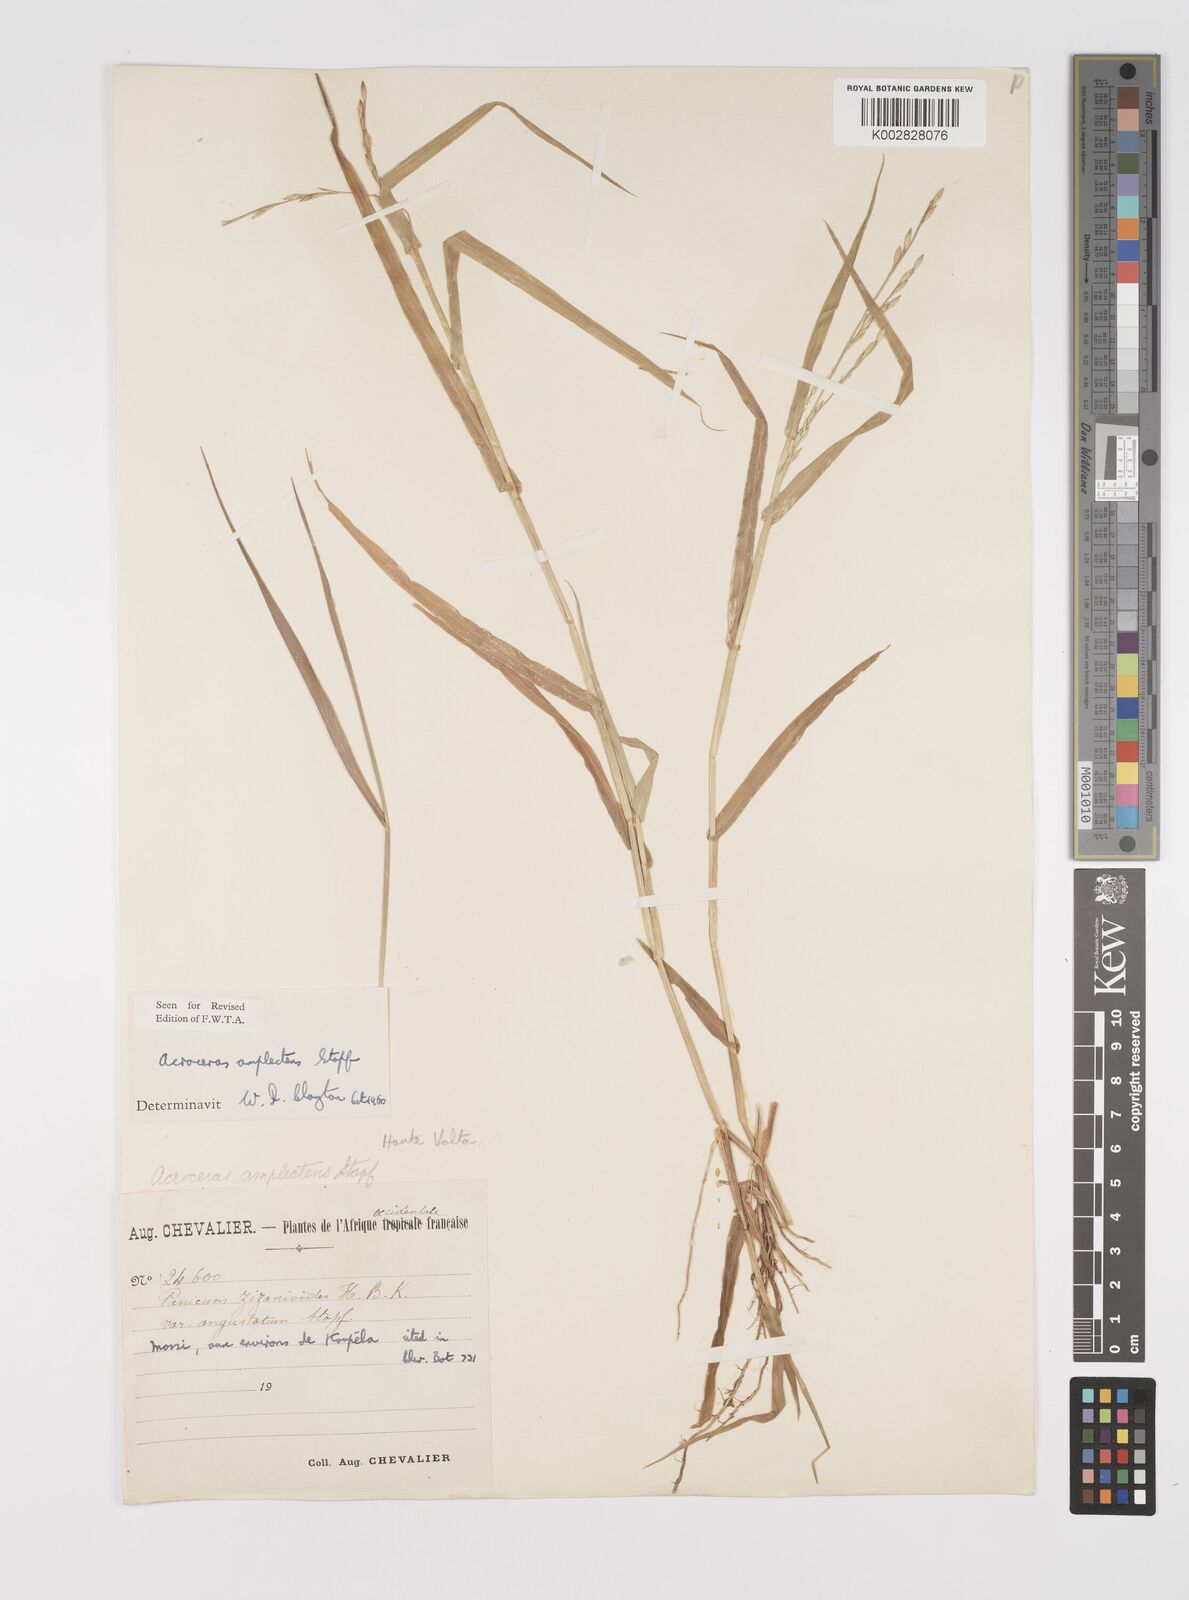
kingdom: Plantae
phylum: Tracheophyta
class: Liliopsida
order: Poales
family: Poaceae
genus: Acroceras
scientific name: Acroceras amplectens
